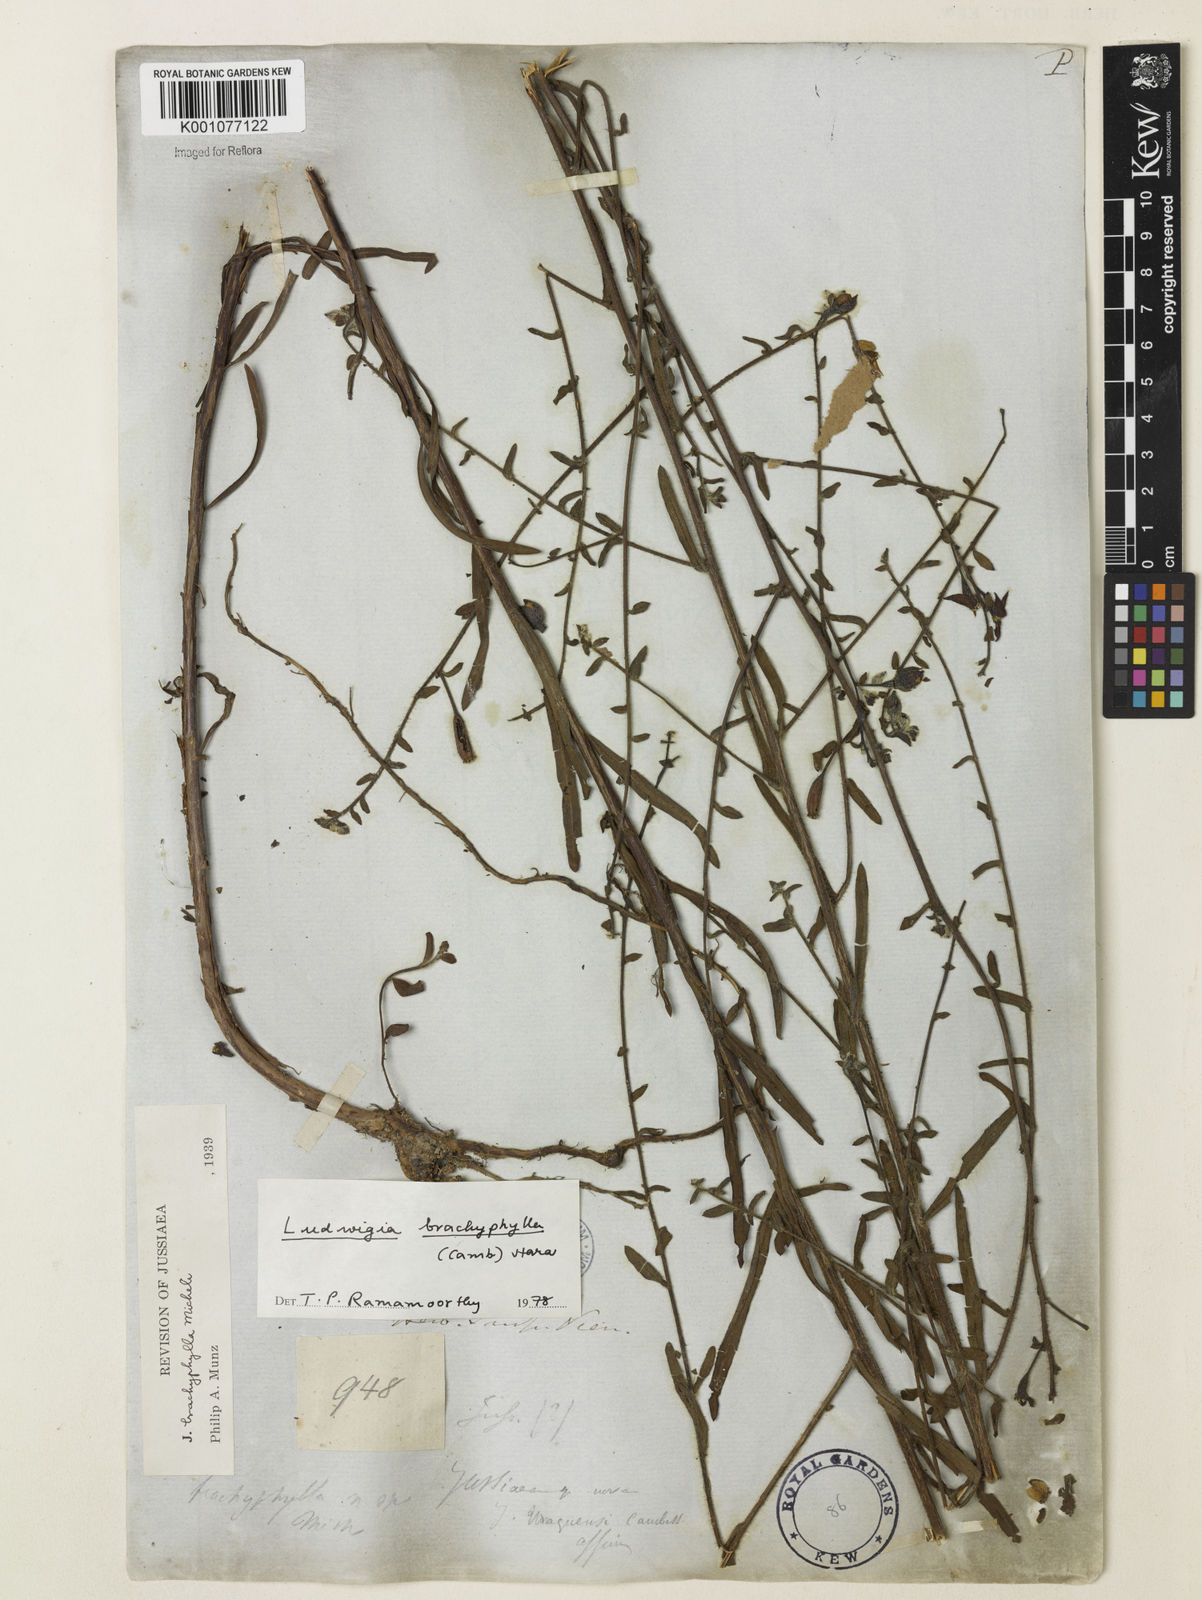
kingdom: Plantae
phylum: Tracheophyta
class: Magnoliopsida
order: Myrtales
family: Onagraceae
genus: Ludwigia
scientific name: Ludwigia brachyphylla
